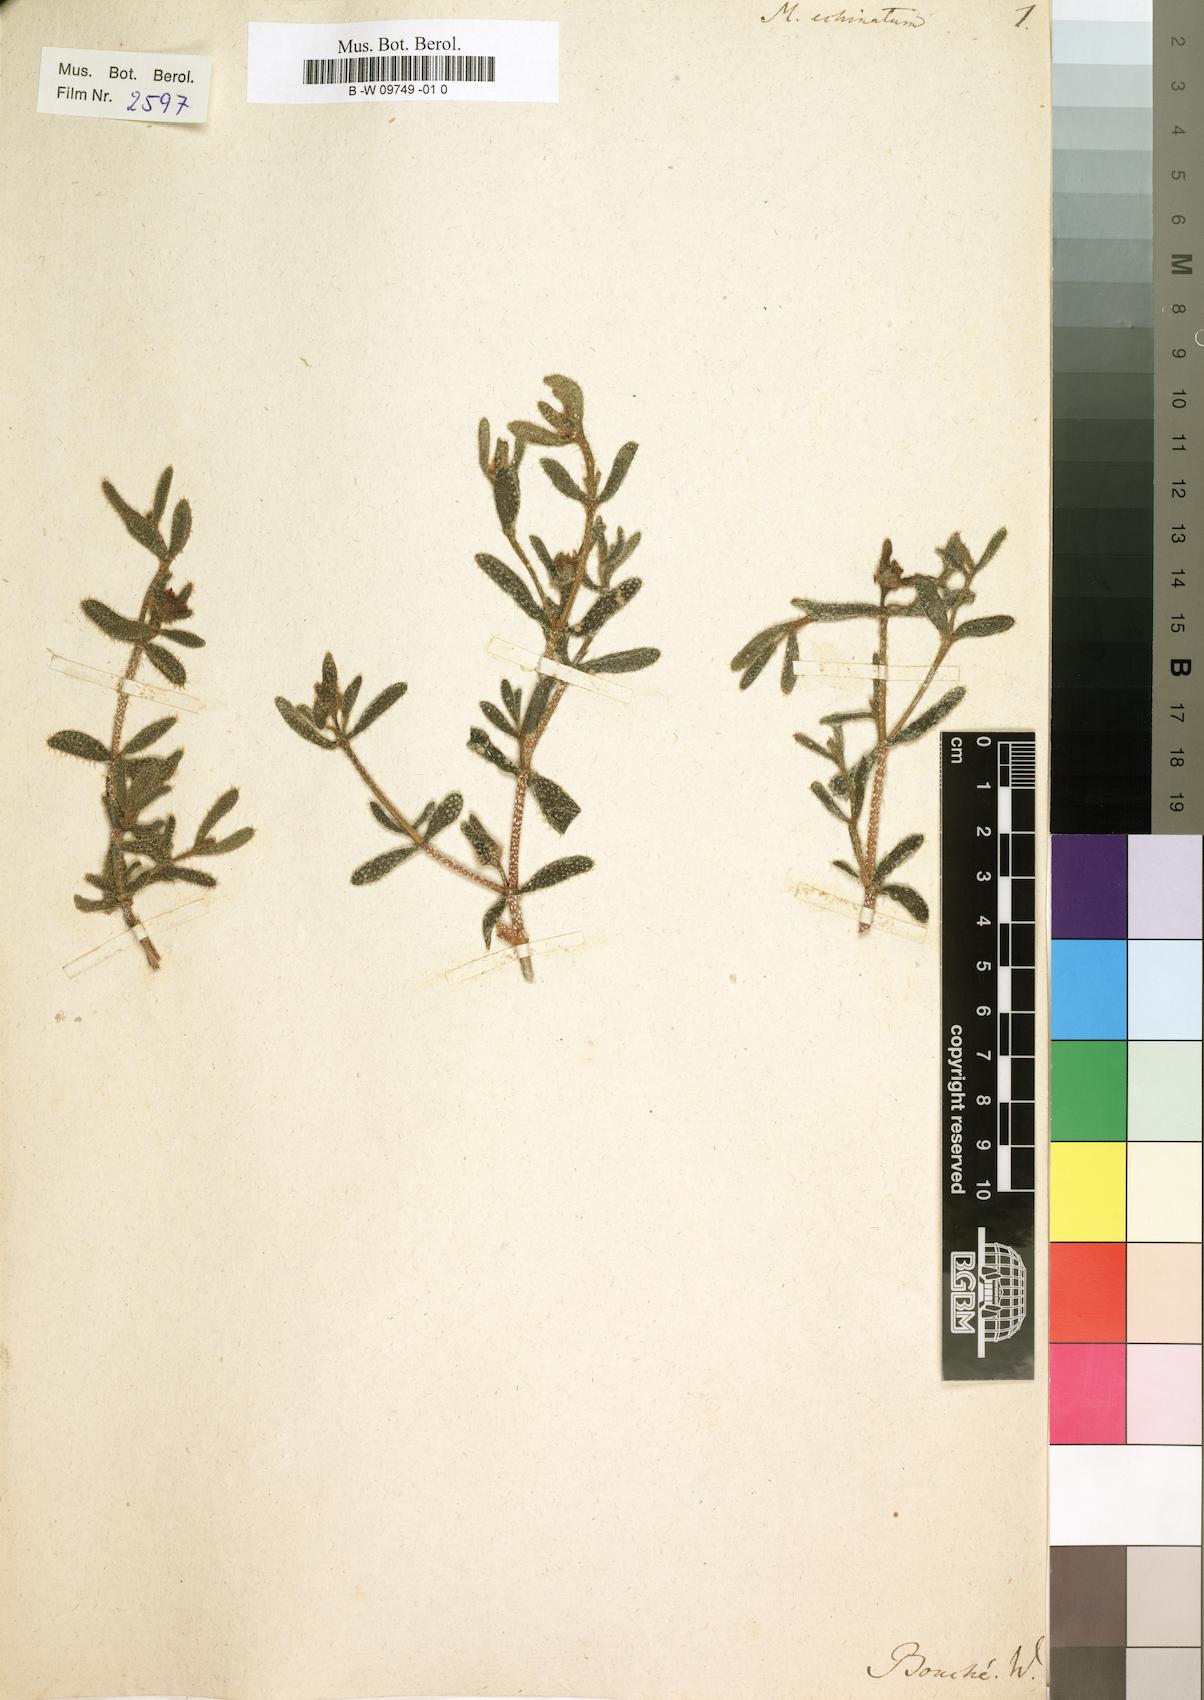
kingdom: Plantae
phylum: Tracheophyta
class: Magnoliopsida
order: Caryophyllales
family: Aizoaceae
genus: Delosperma
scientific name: Delosperma echinatum
